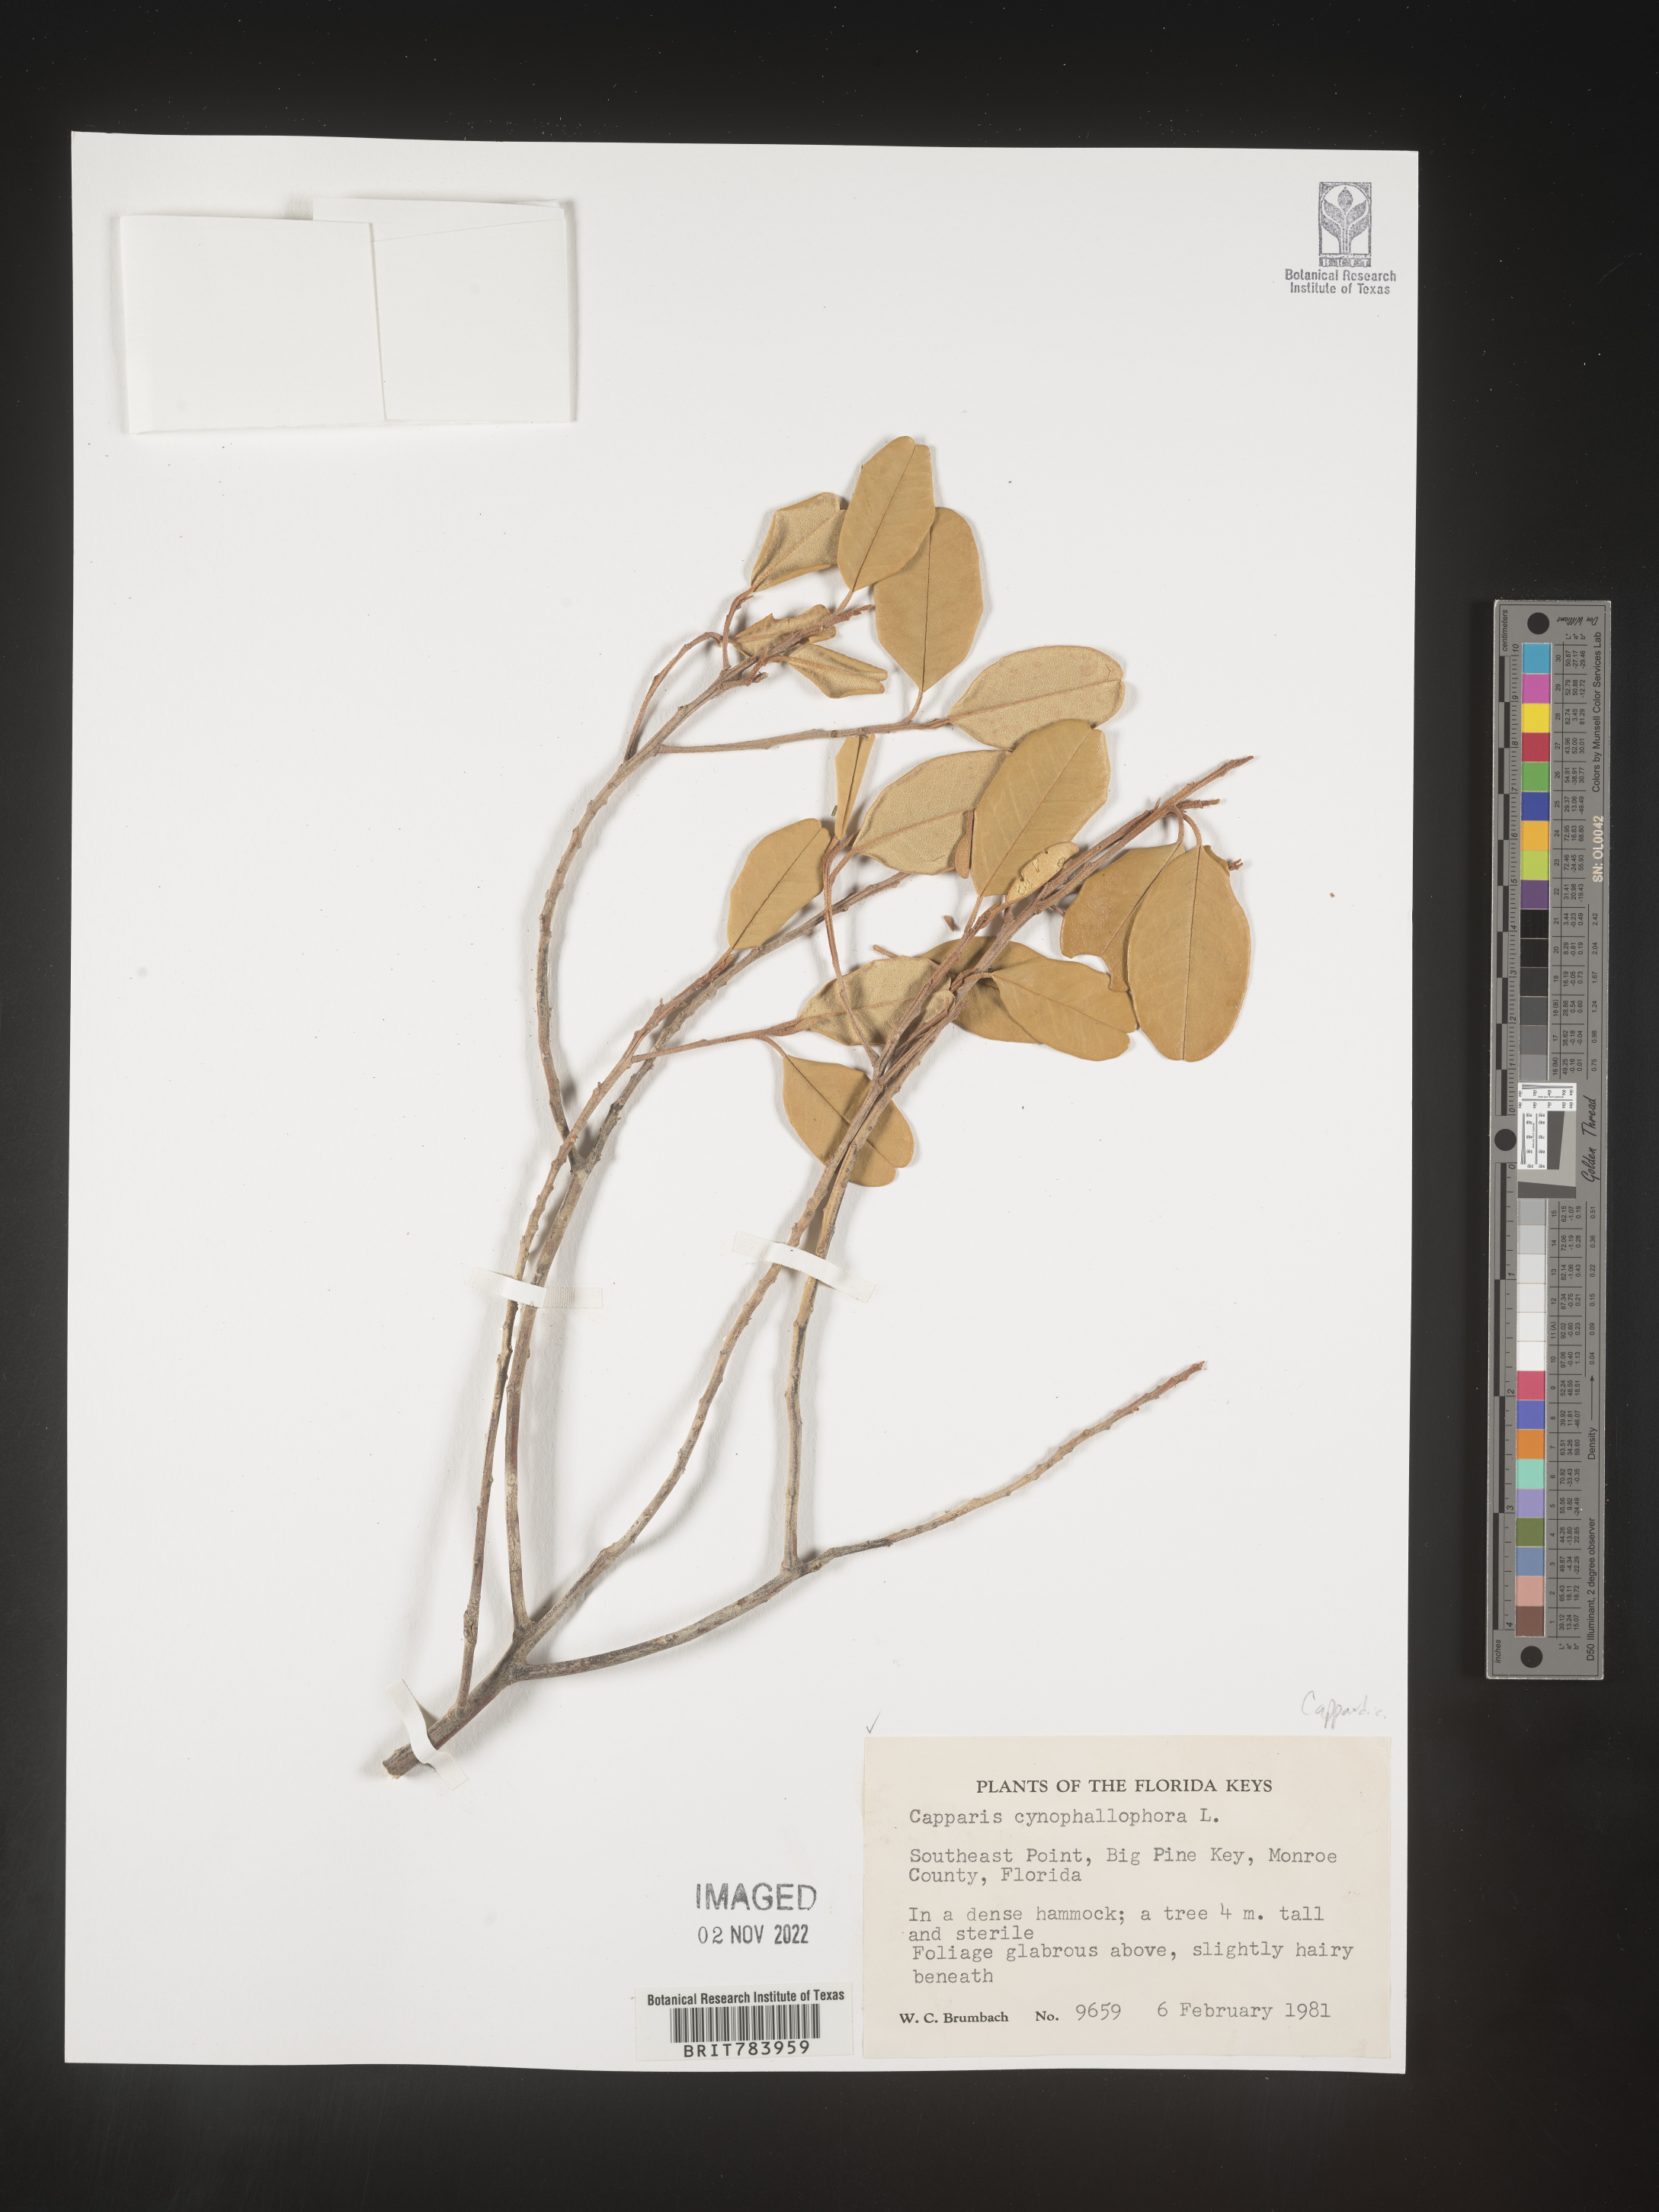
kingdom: Plantae
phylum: Tracheophyta
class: Magnoliopsida
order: Brassicales
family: Capparaceae
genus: Capparis
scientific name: Capparis
